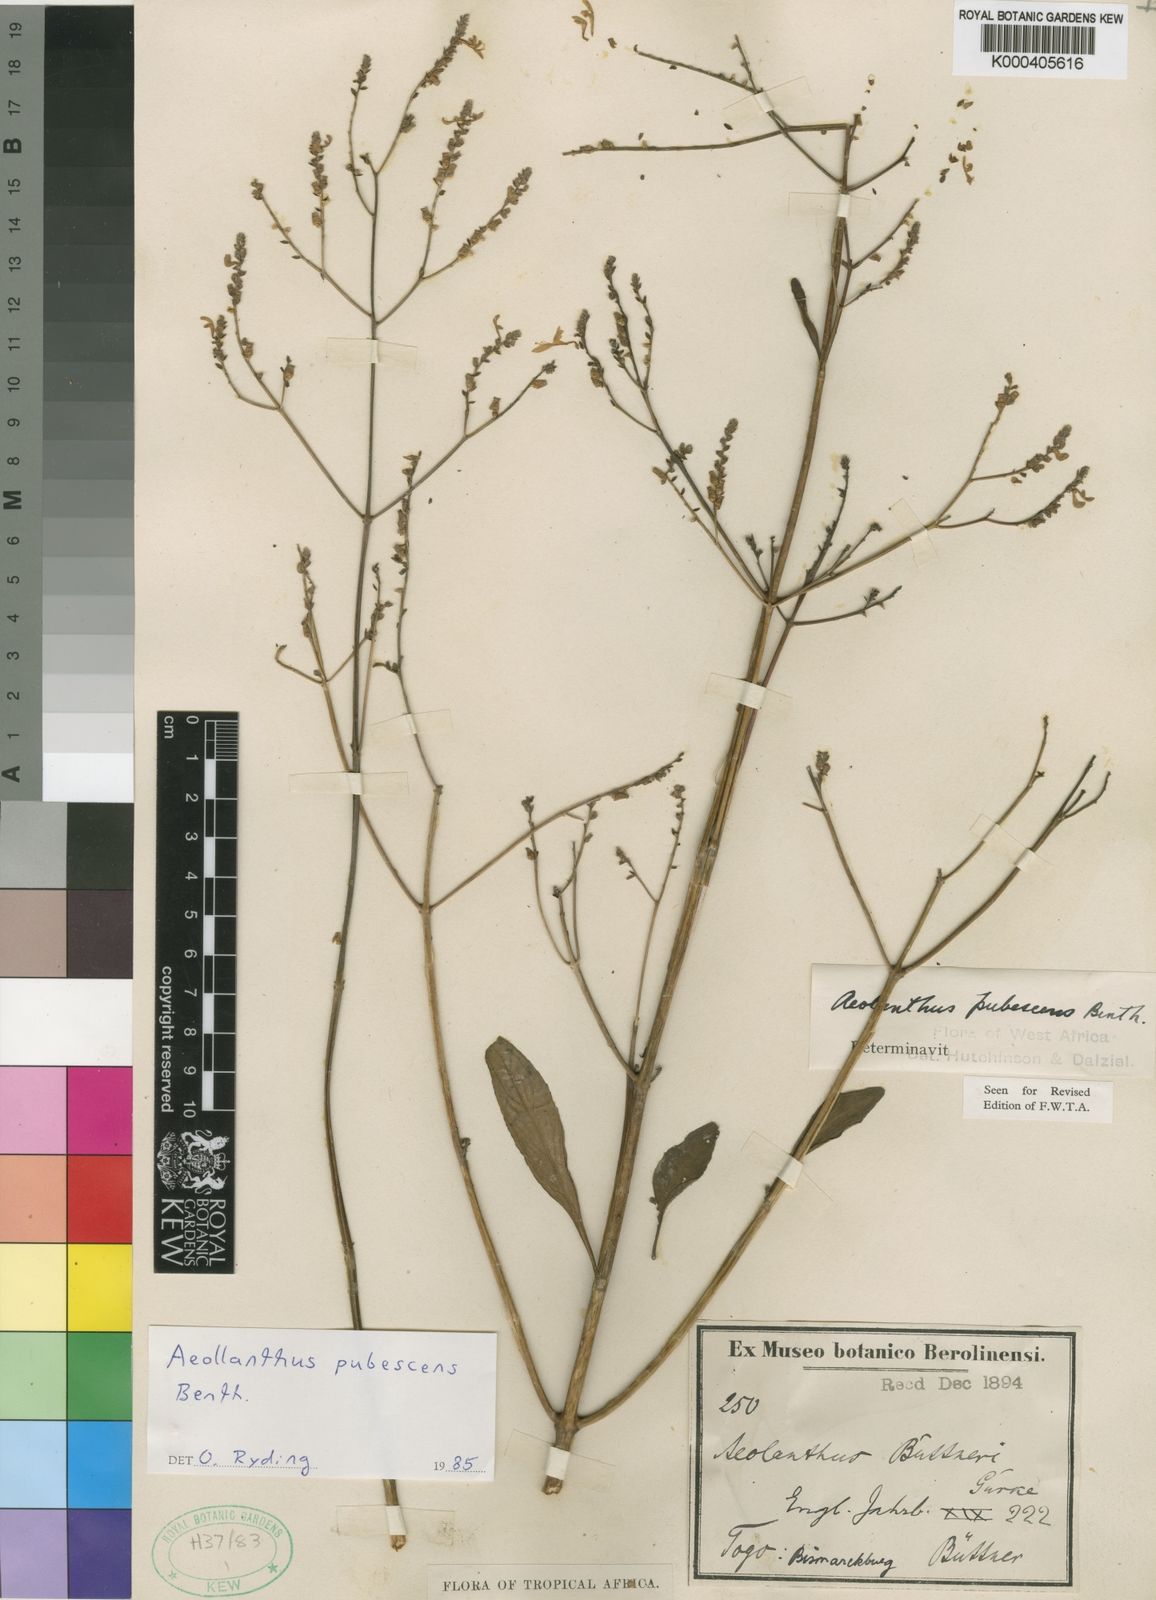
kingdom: Plantae
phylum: Tracheophyta
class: Magnoliopsida
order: Lamiales
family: Lamiaceae
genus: Aeollanthus
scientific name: Aeollanthus pubescens
